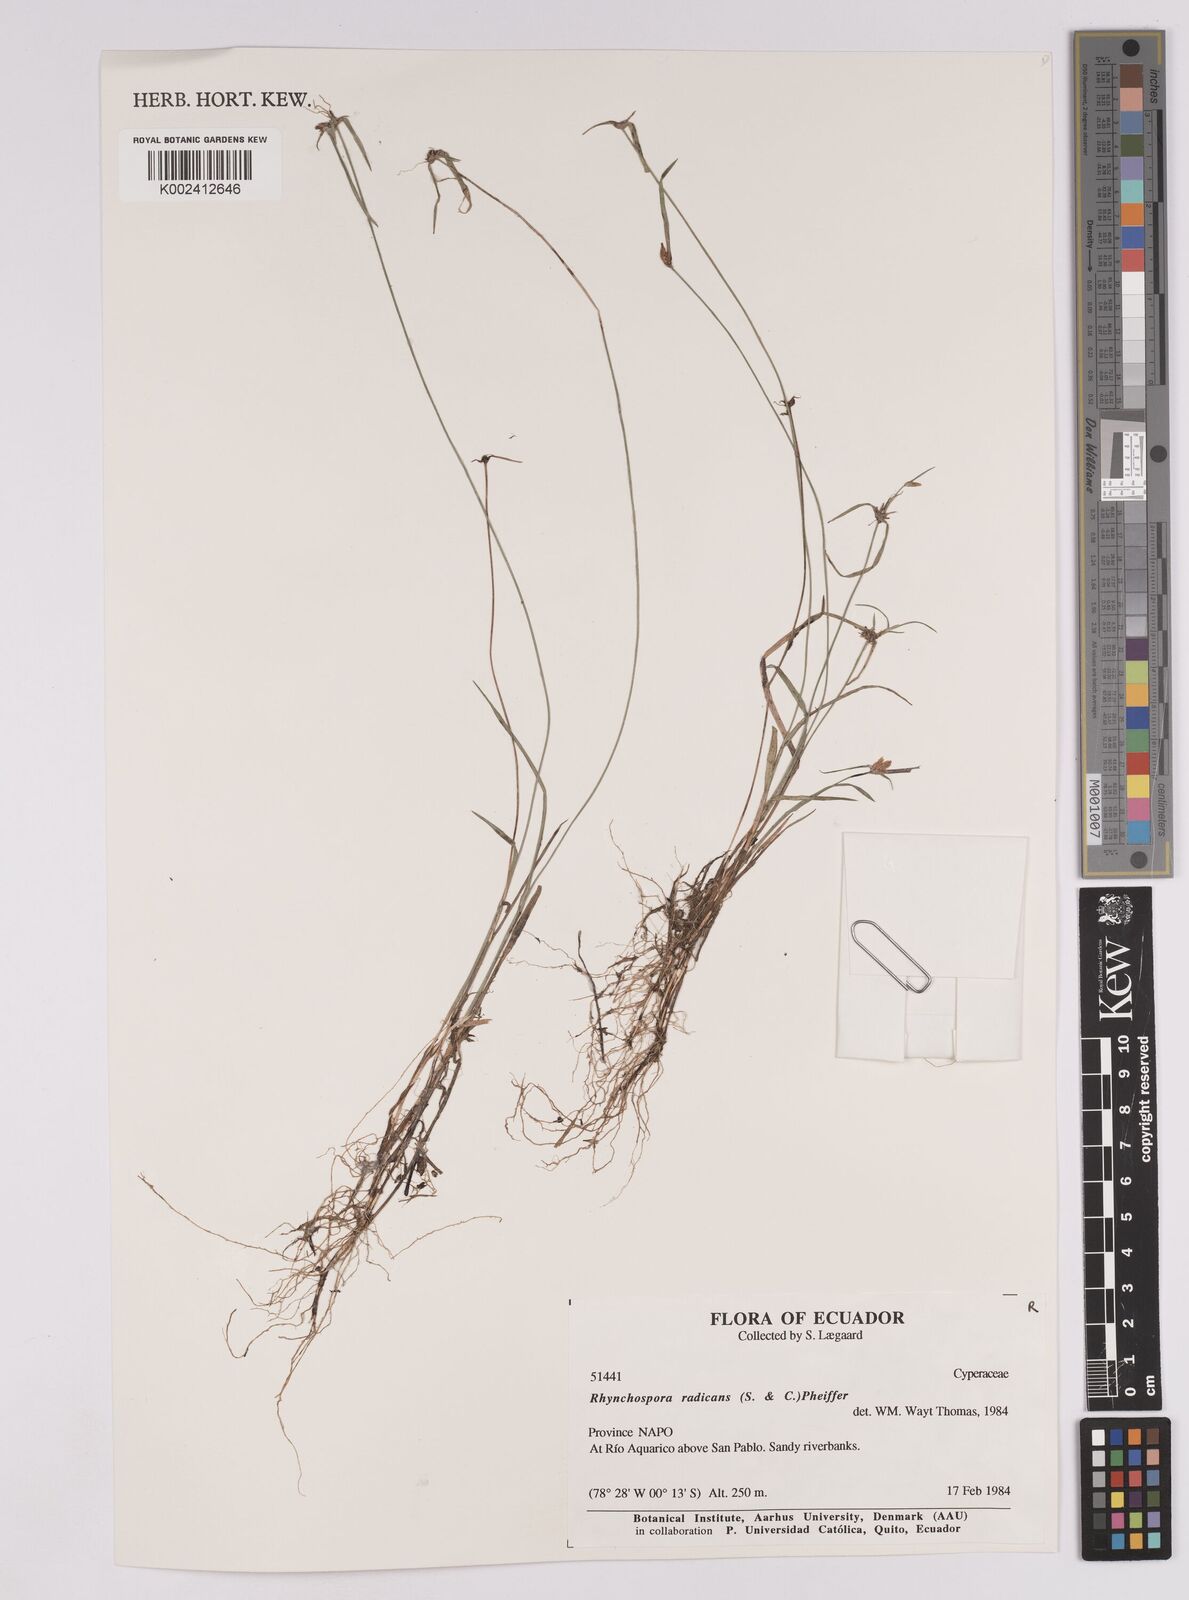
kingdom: Plantae
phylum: Tracheophyta
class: Liliopsida
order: Poales
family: Cyperaceae
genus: Rhynchospora
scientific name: Rhynchospora radicans
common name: Tropical whitetop
